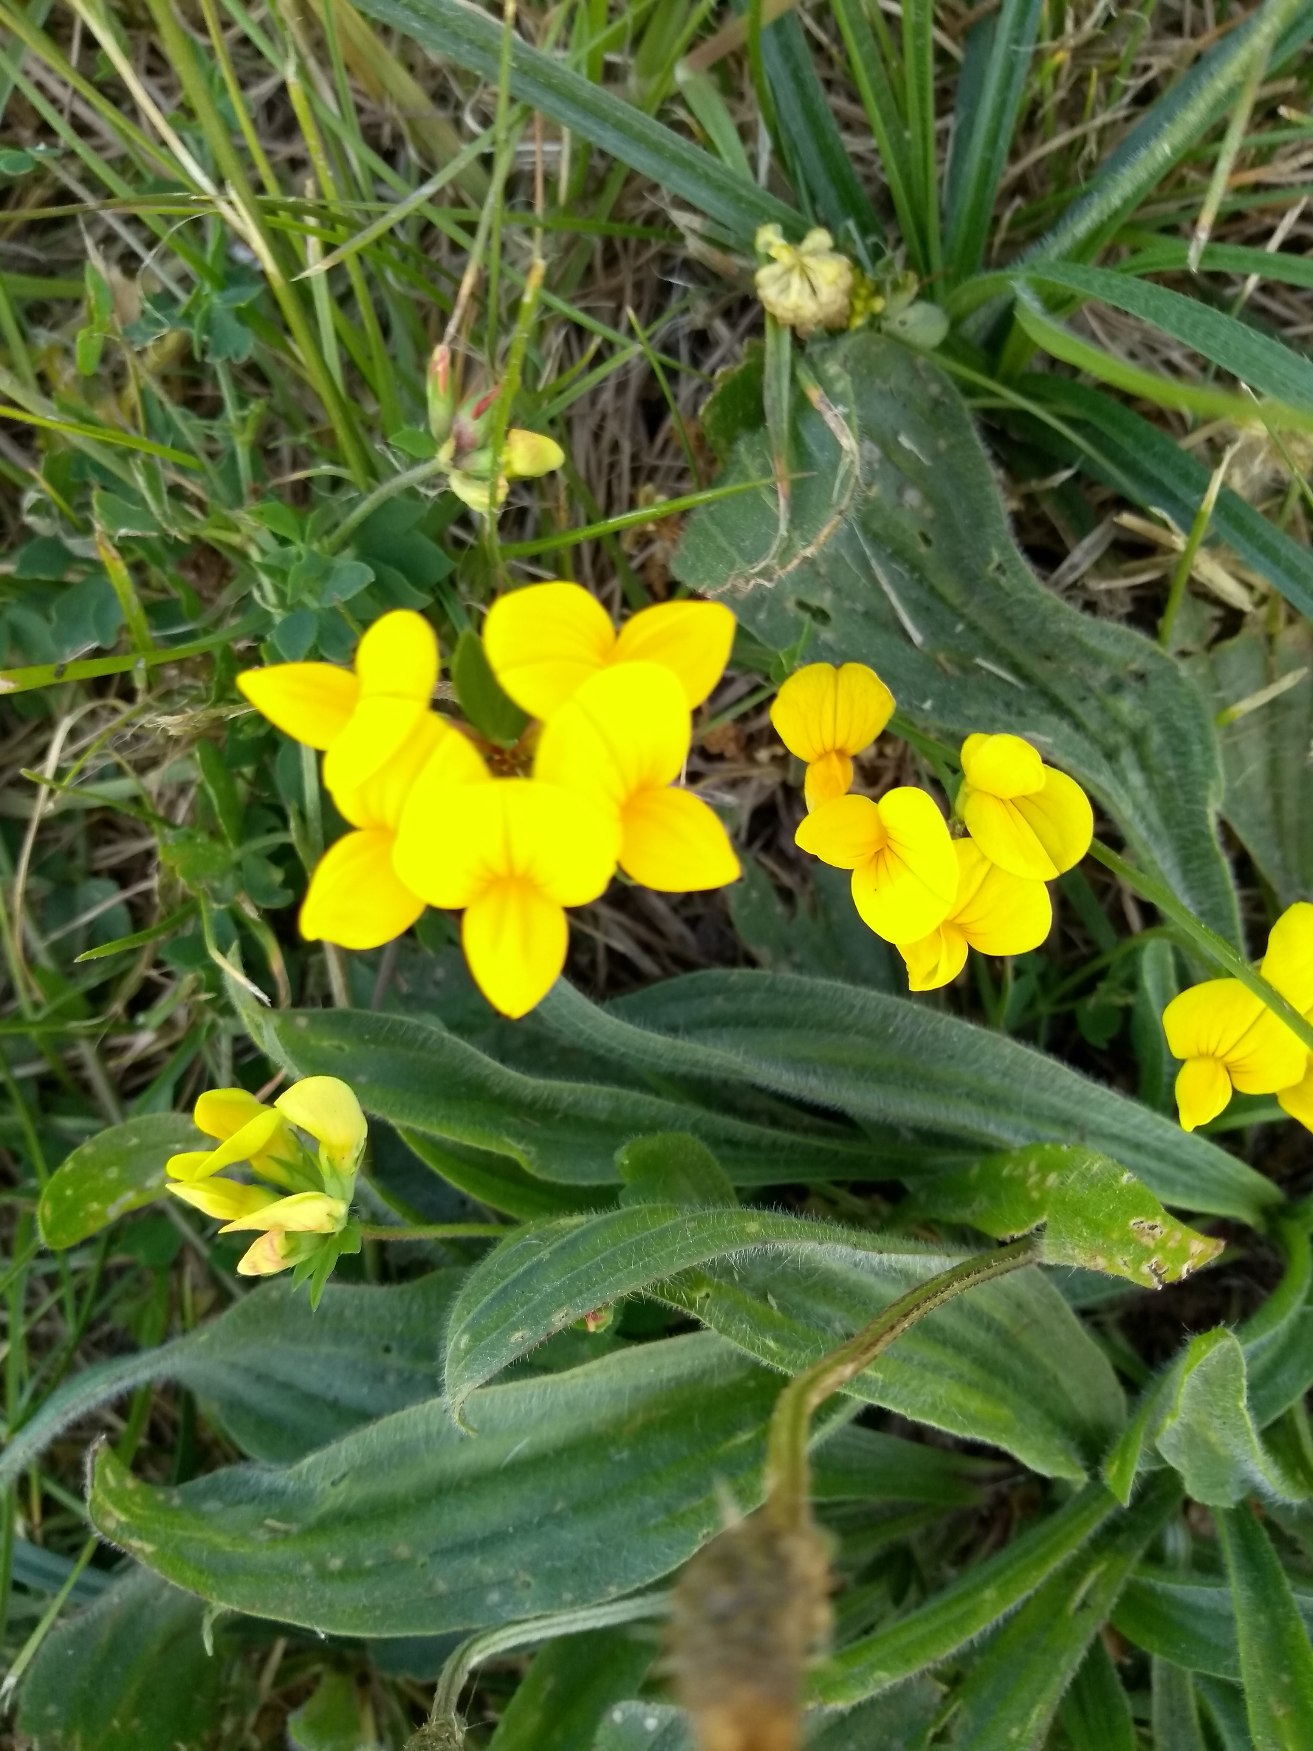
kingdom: Plantae
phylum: Tracheophyta
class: Magnoliopsida
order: Fabales
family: Fabaceae
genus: Lotus
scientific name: Lotus corniculatus
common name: Almindelig kællingetand
